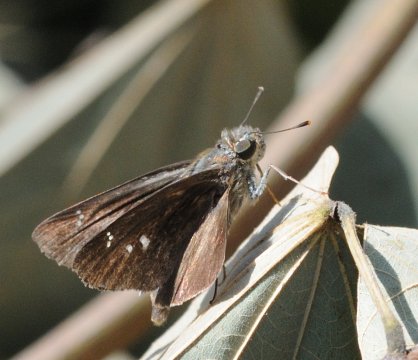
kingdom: Animalia
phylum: Arthropoda
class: Insecta
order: Lepidoptera
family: Hesperiidae
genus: Borbo
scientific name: Borbo
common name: Swifts
